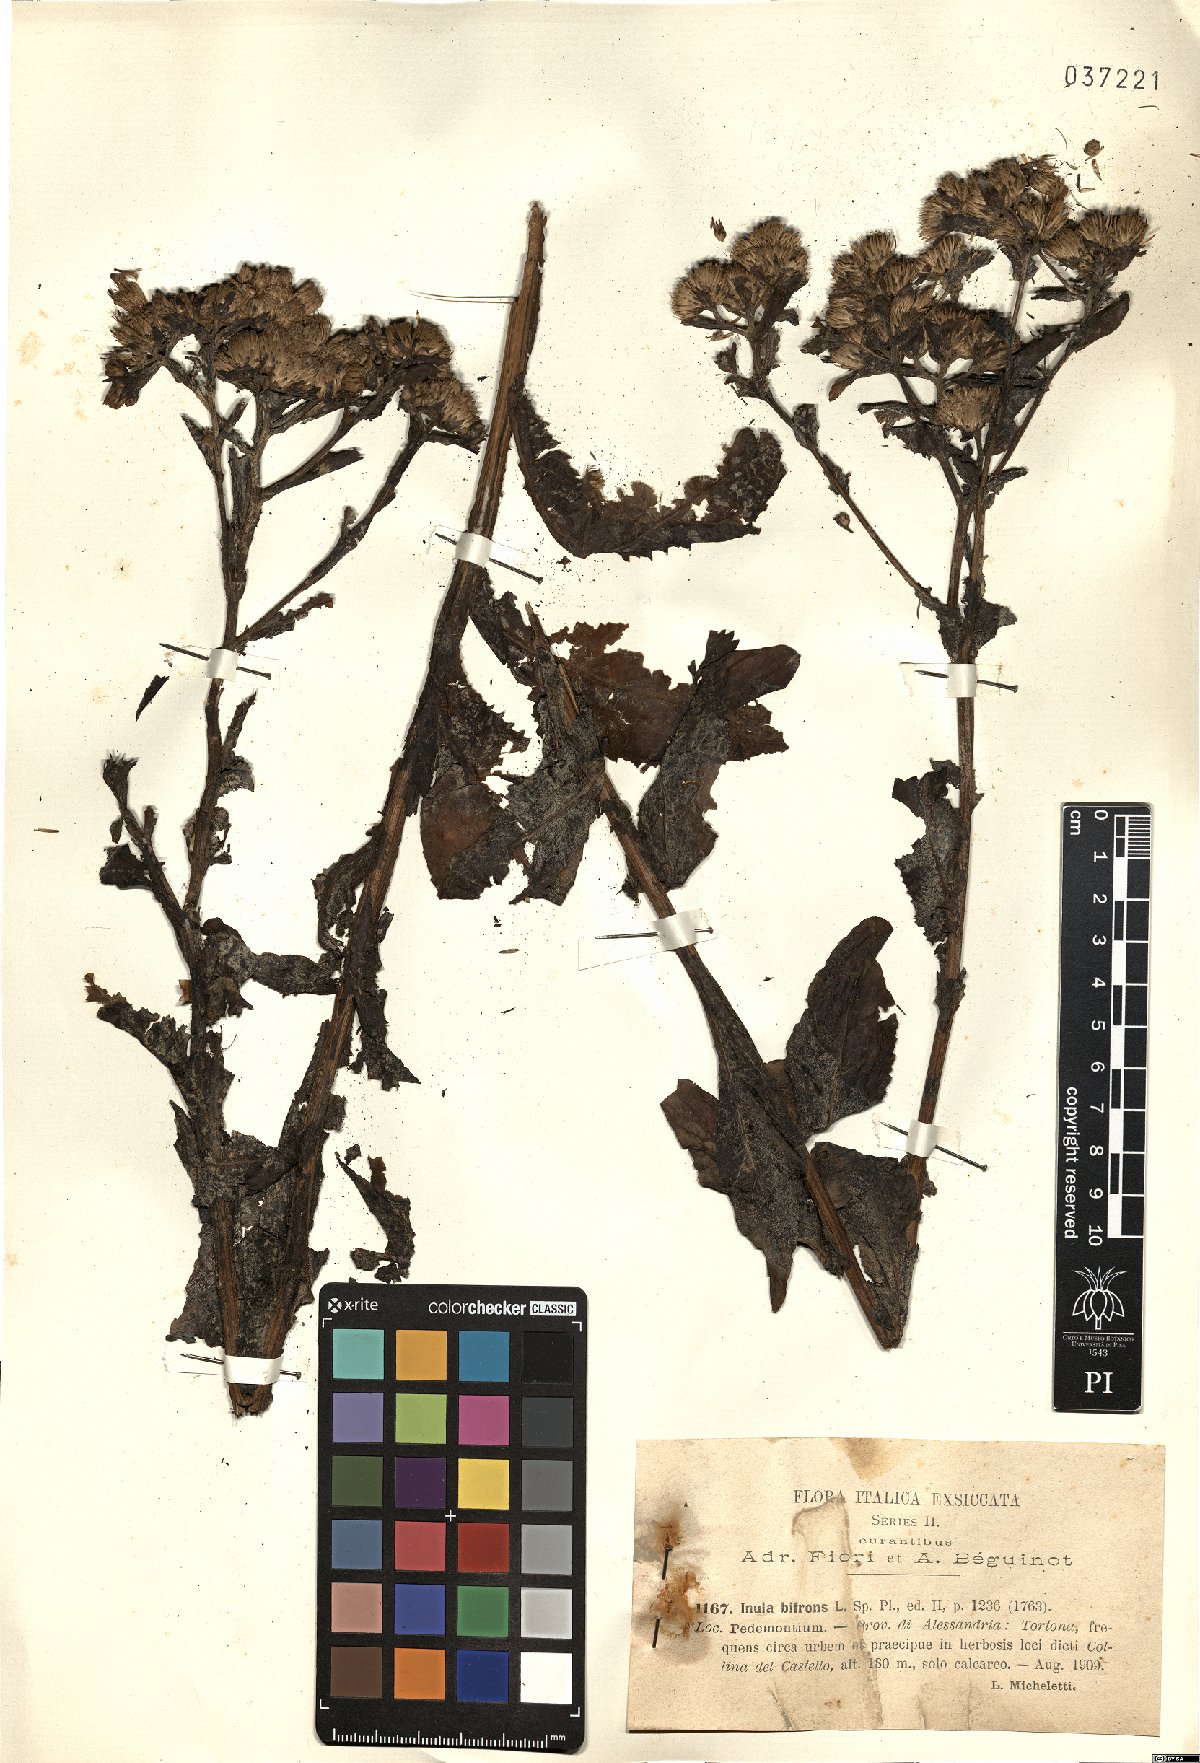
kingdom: Plantae
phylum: Tracheophyta
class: Magnoliopsida
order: Asterales
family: Asteraceae
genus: Pentanema
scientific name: Pentanema bifrons
